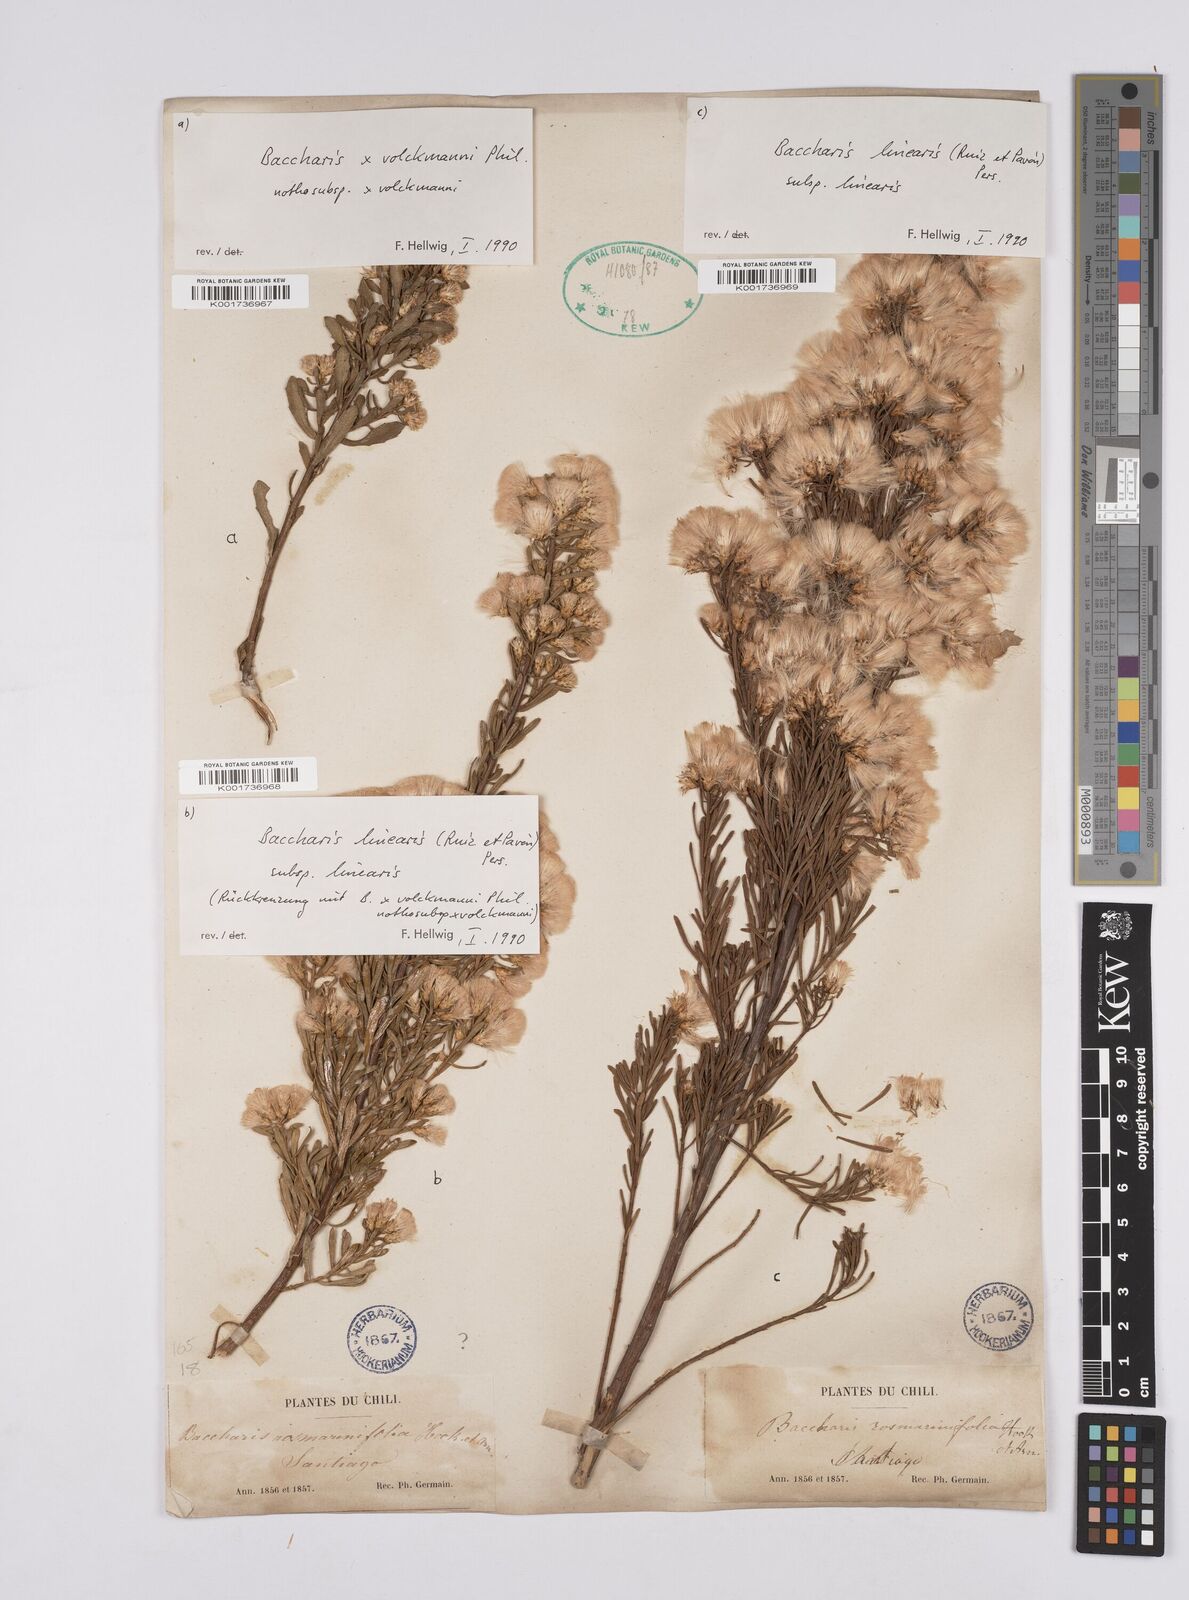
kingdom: Plantae
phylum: Tracheophyta
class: Magnoliopsida
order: Asterales
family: Asteraceae
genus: Baccharis
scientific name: Baccharis linearis
